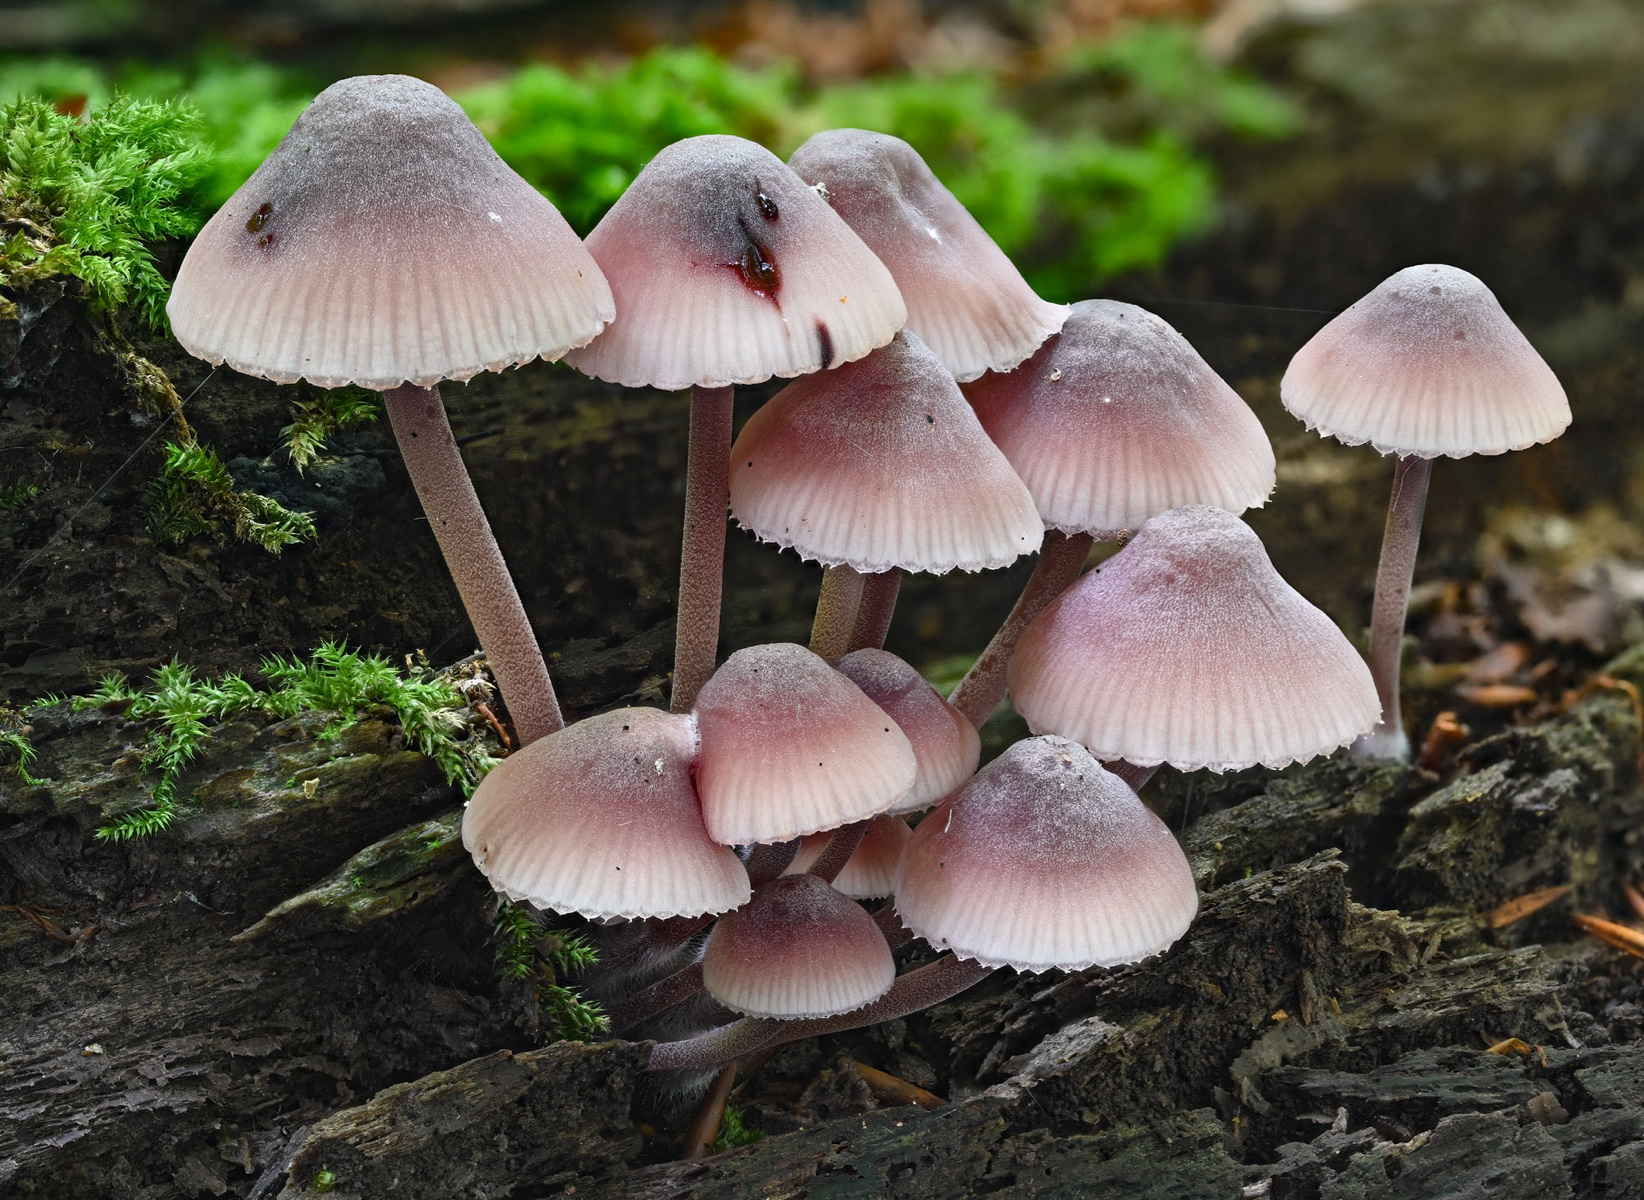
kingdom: Fungi
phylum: Basidiomycota
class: Agaricomycetes
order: Agaricales
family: Mycenaceae
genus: Mycena
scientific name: Mycena haematopus
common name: blødende huesvamp
